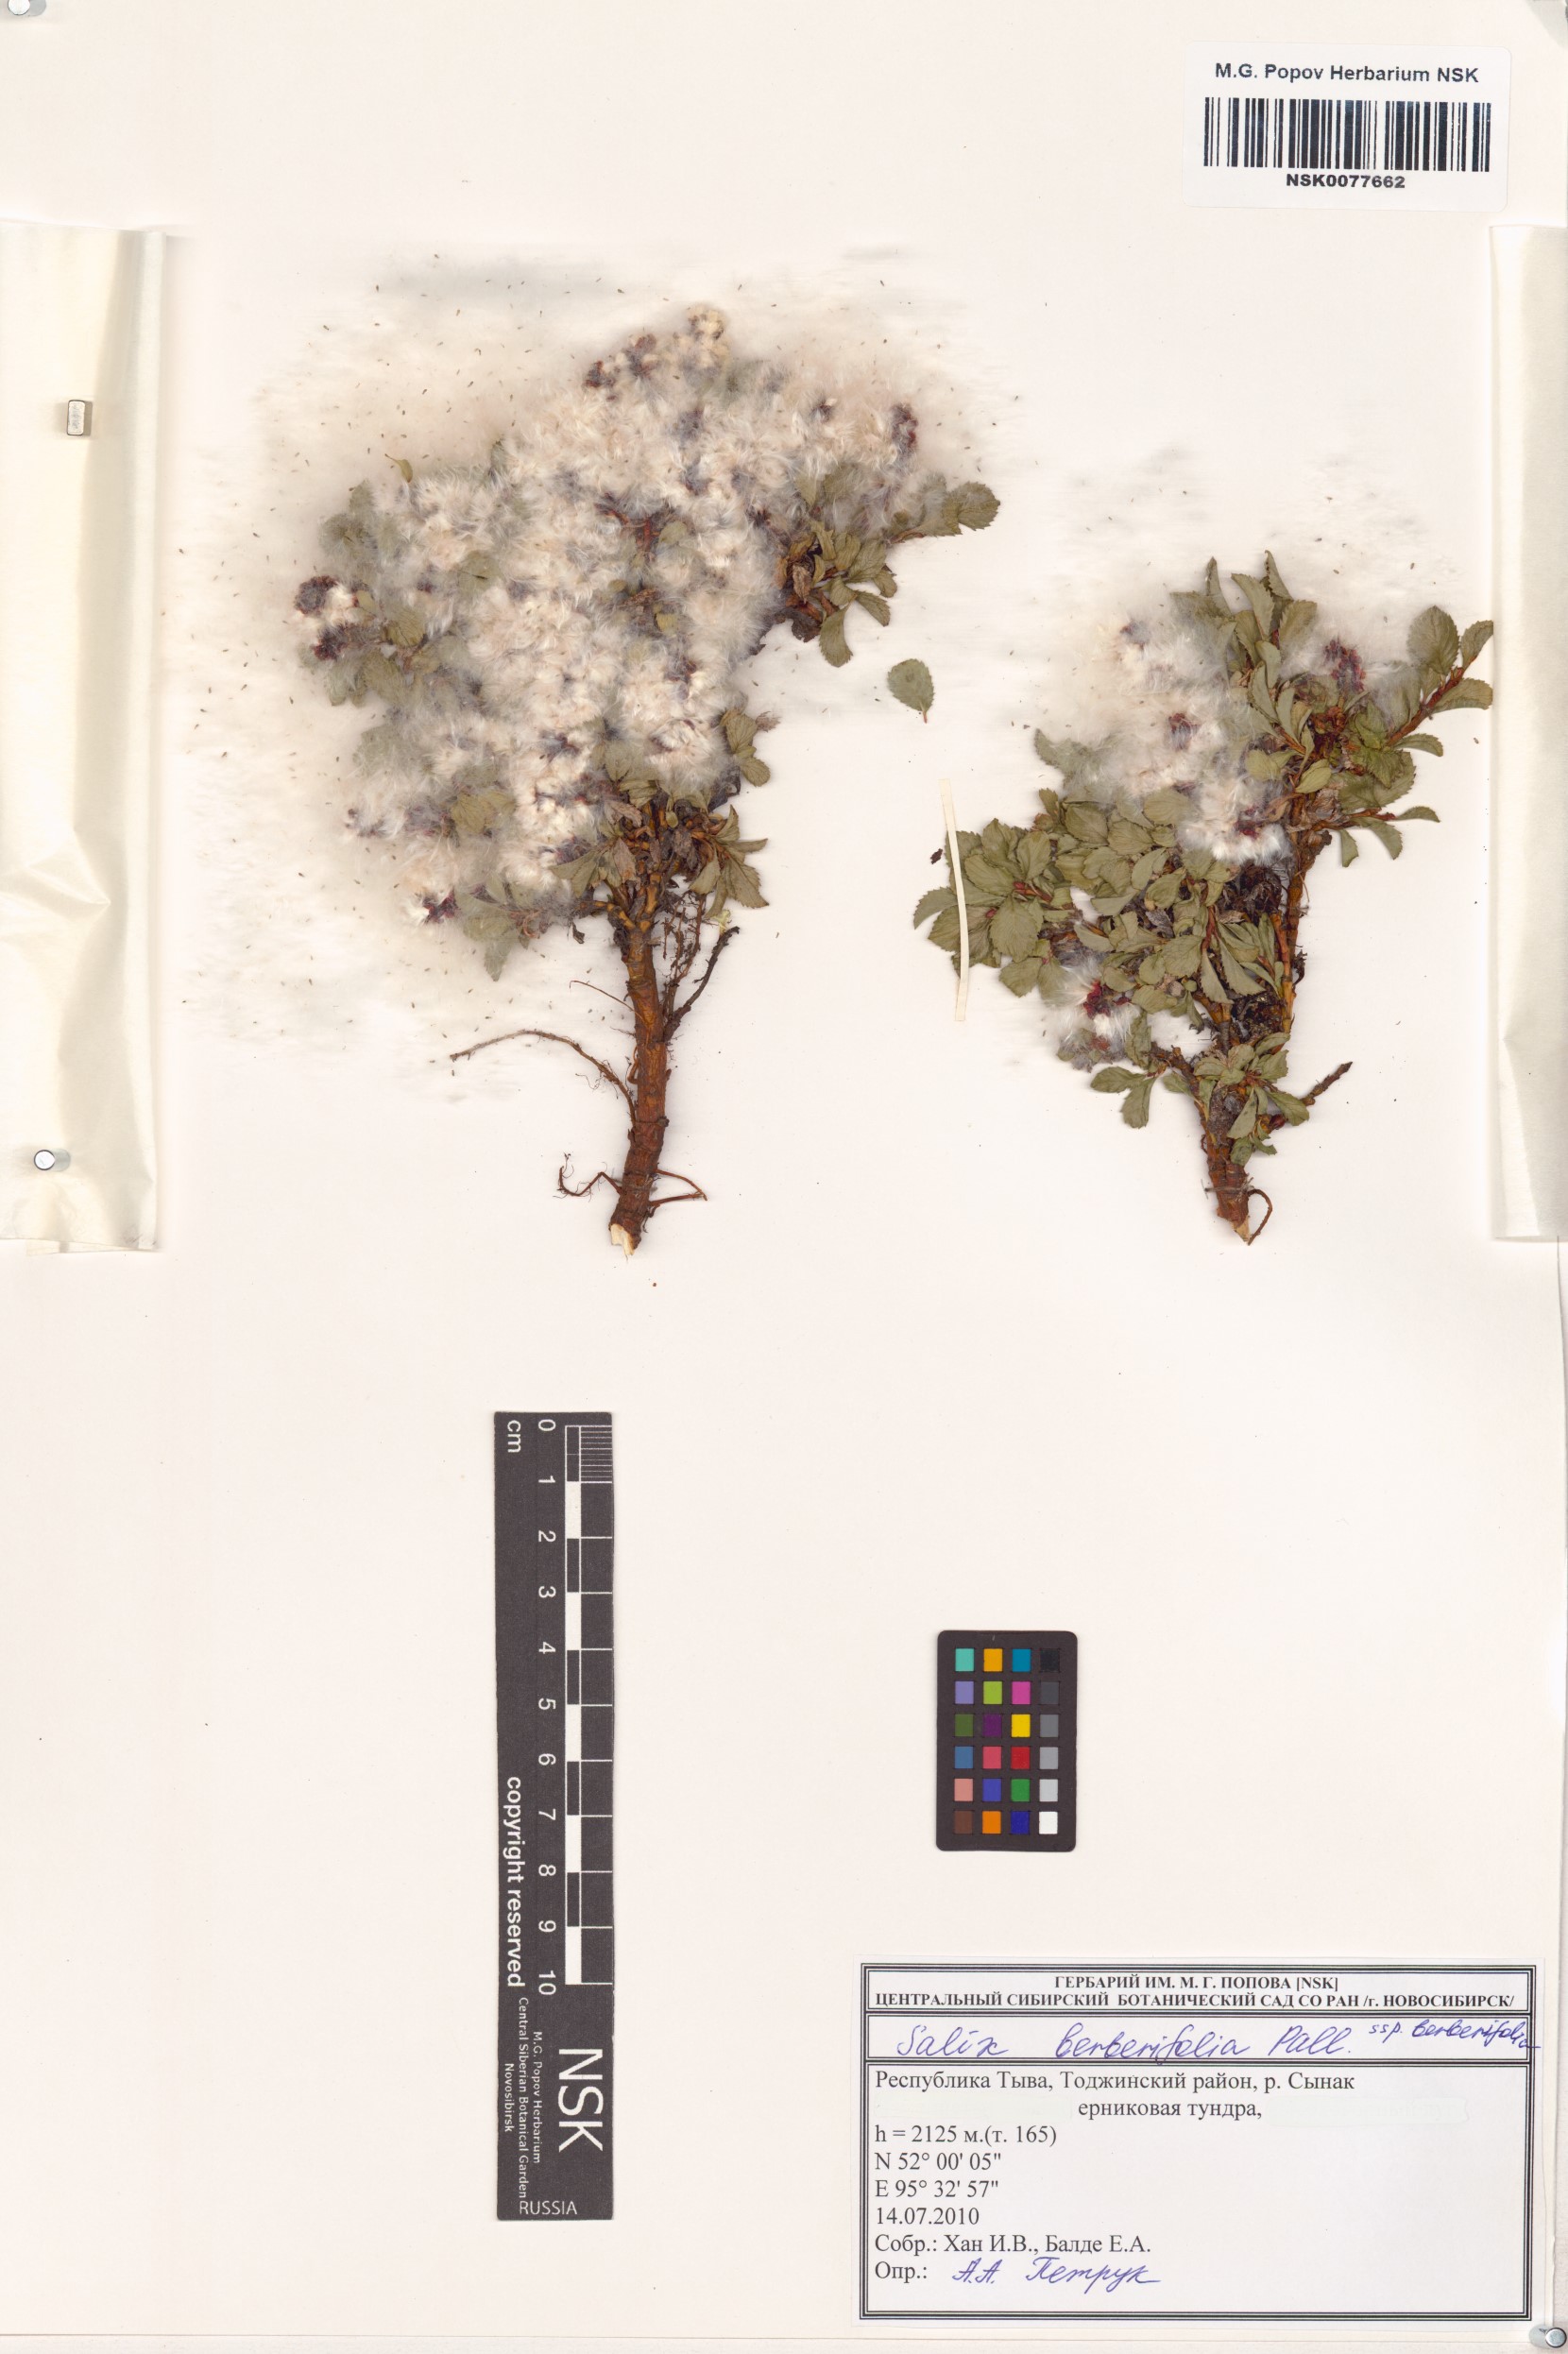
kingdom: Plantae
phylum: Tracheophyta
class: Magnoliopsida
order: Malpighiales
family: Salicaceae
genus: Salix
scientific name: Salix berberifolia
